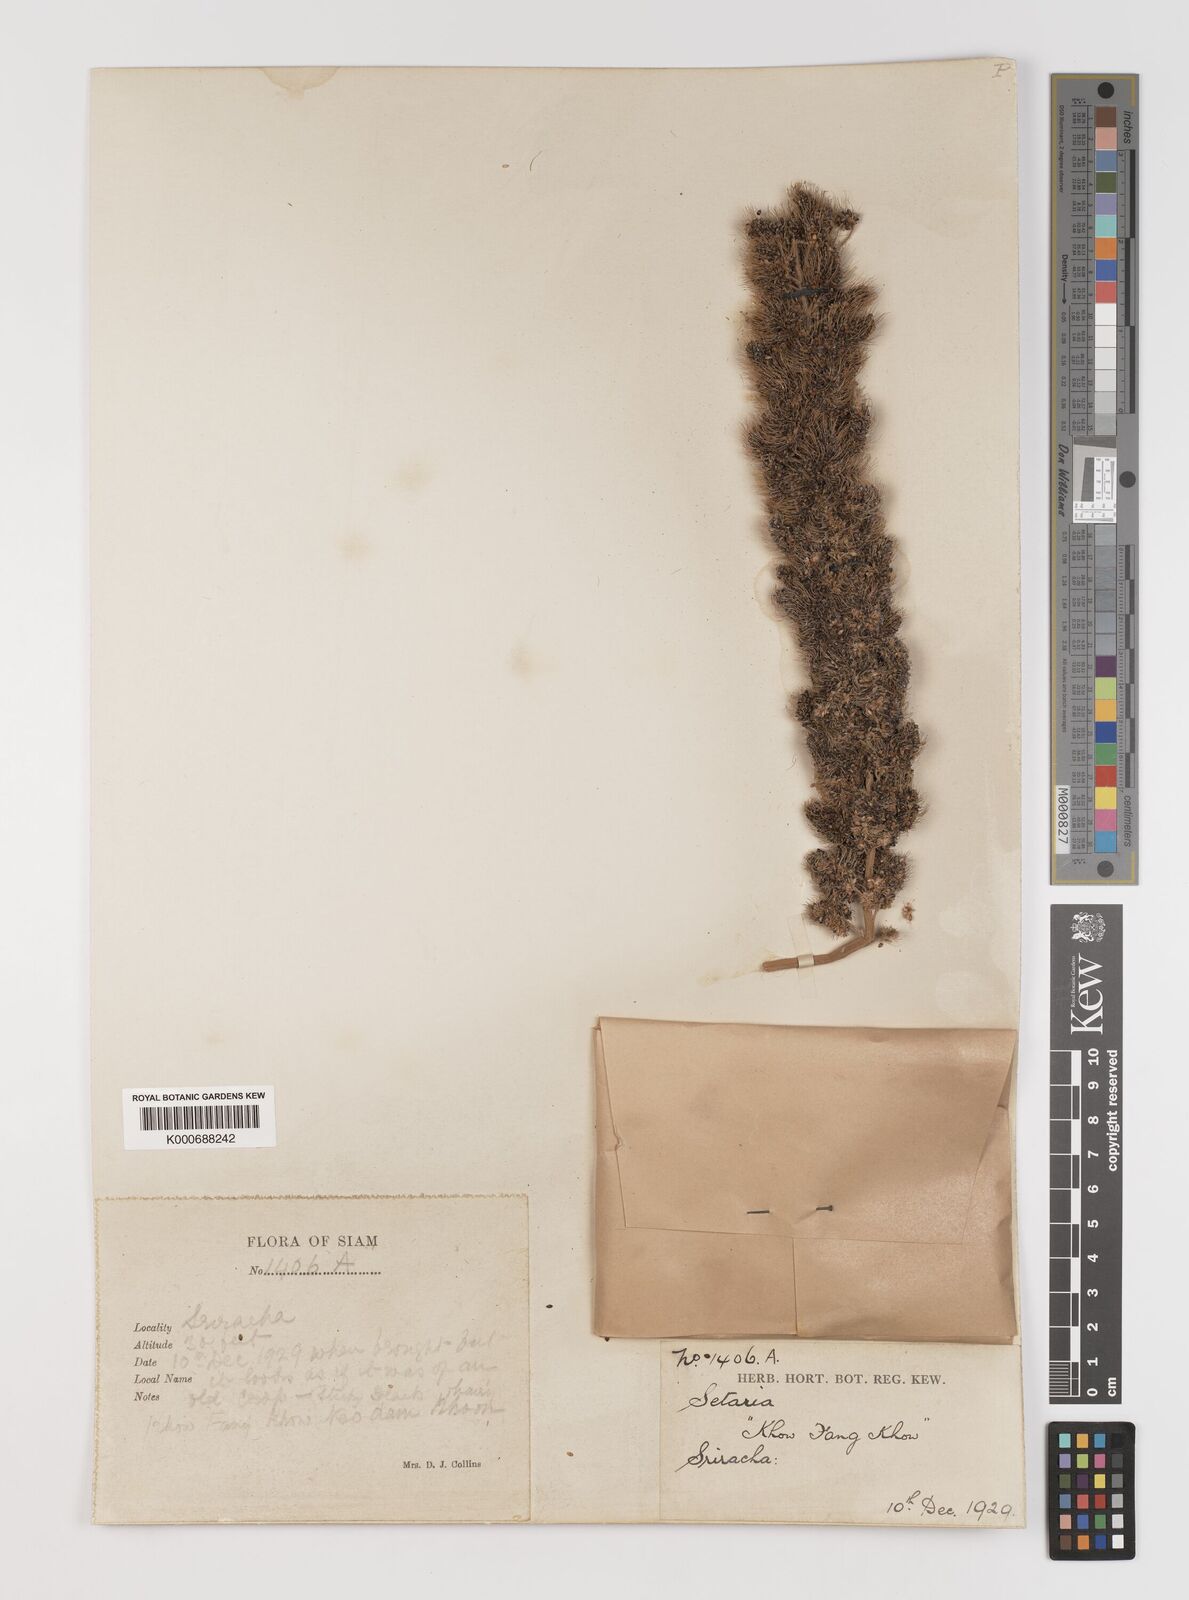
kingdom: Plantae
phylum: Tracheophyta
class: Liliopsida
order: Poales
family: Poaceae
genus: Setaria
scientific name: Setaria italica
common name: Foxtail bristle-grass
